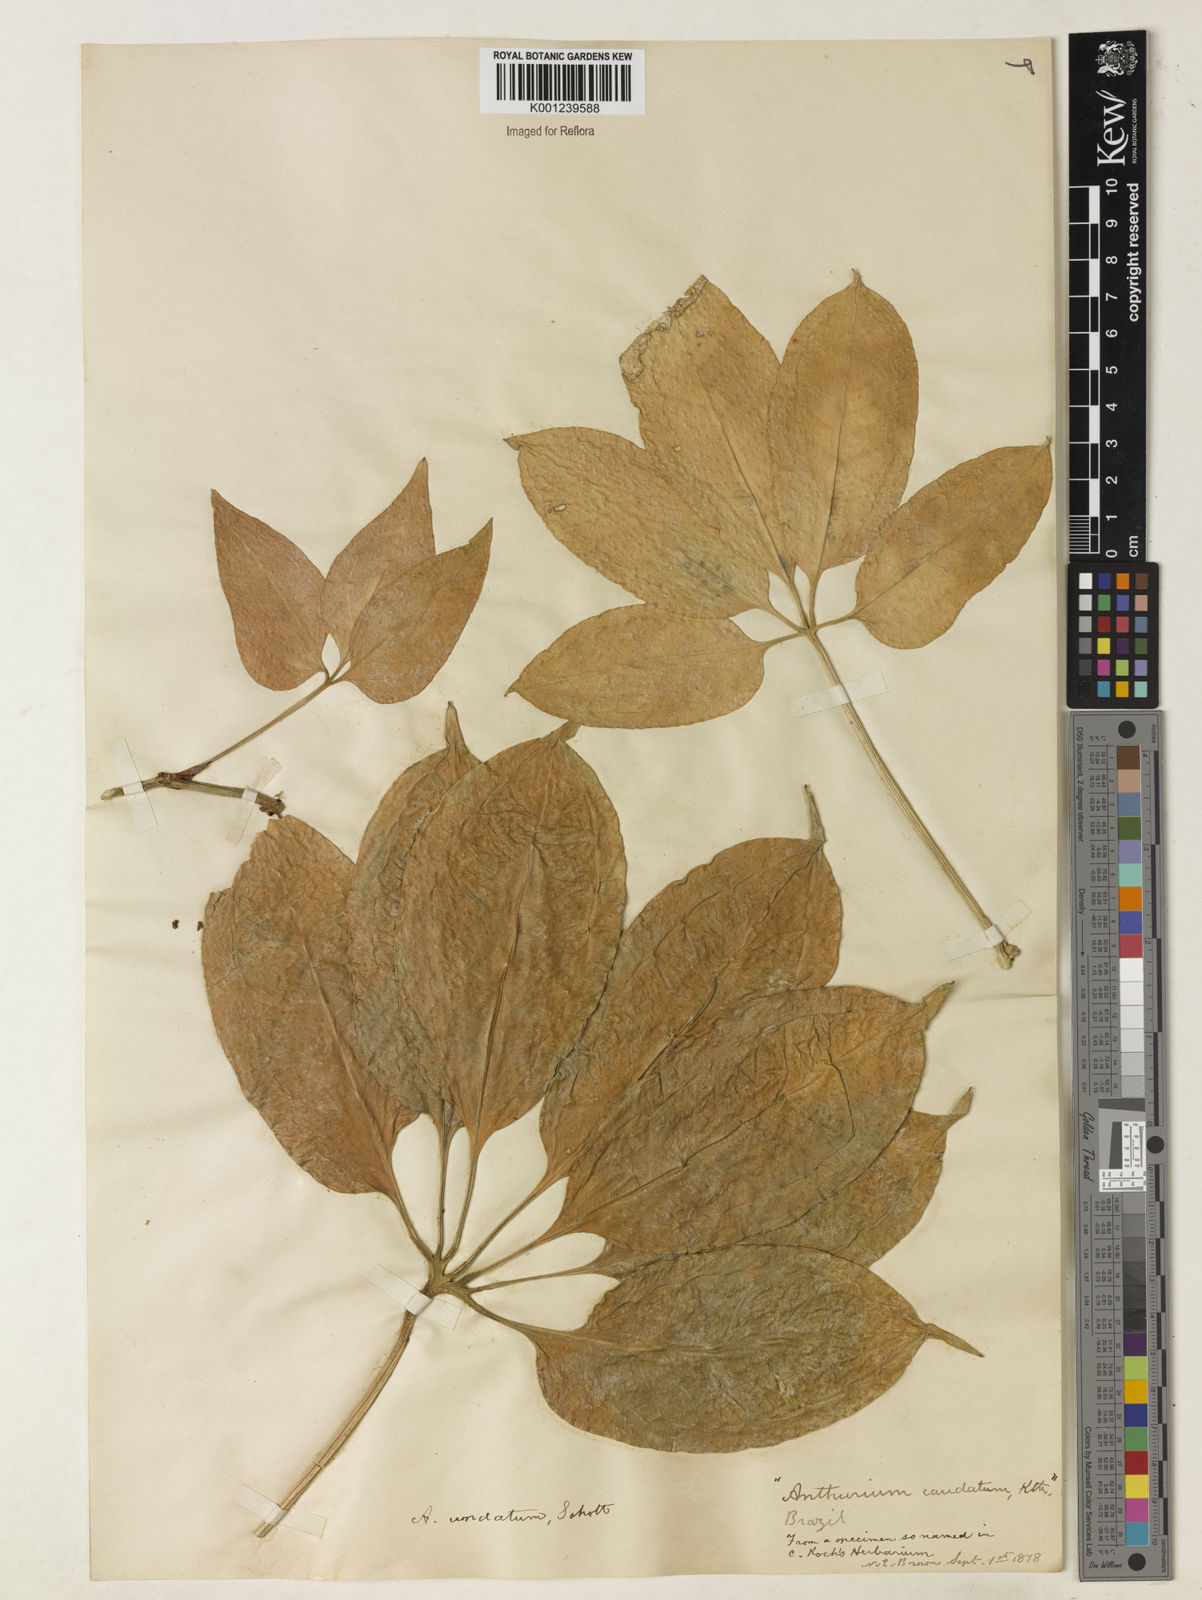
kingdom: Plantae
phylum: Tracheophyta
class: Liliopsida
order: Alismatales
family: Araceae
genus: Anthurium
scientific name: Anthurium pentaphyllum
